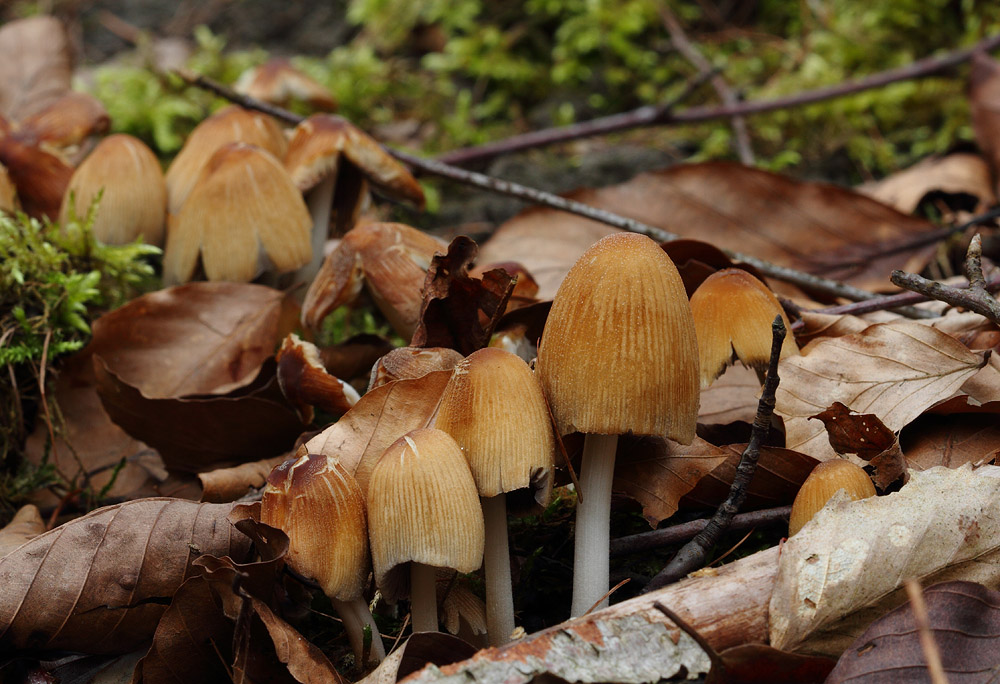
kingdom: Fungi
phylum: Basidiomycota
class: Agaricomycetes
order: Agaricales
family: Psathyrellaceae
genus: Coprinellus
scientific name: Coprinellus micaceus
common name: glimmer-blækhat
